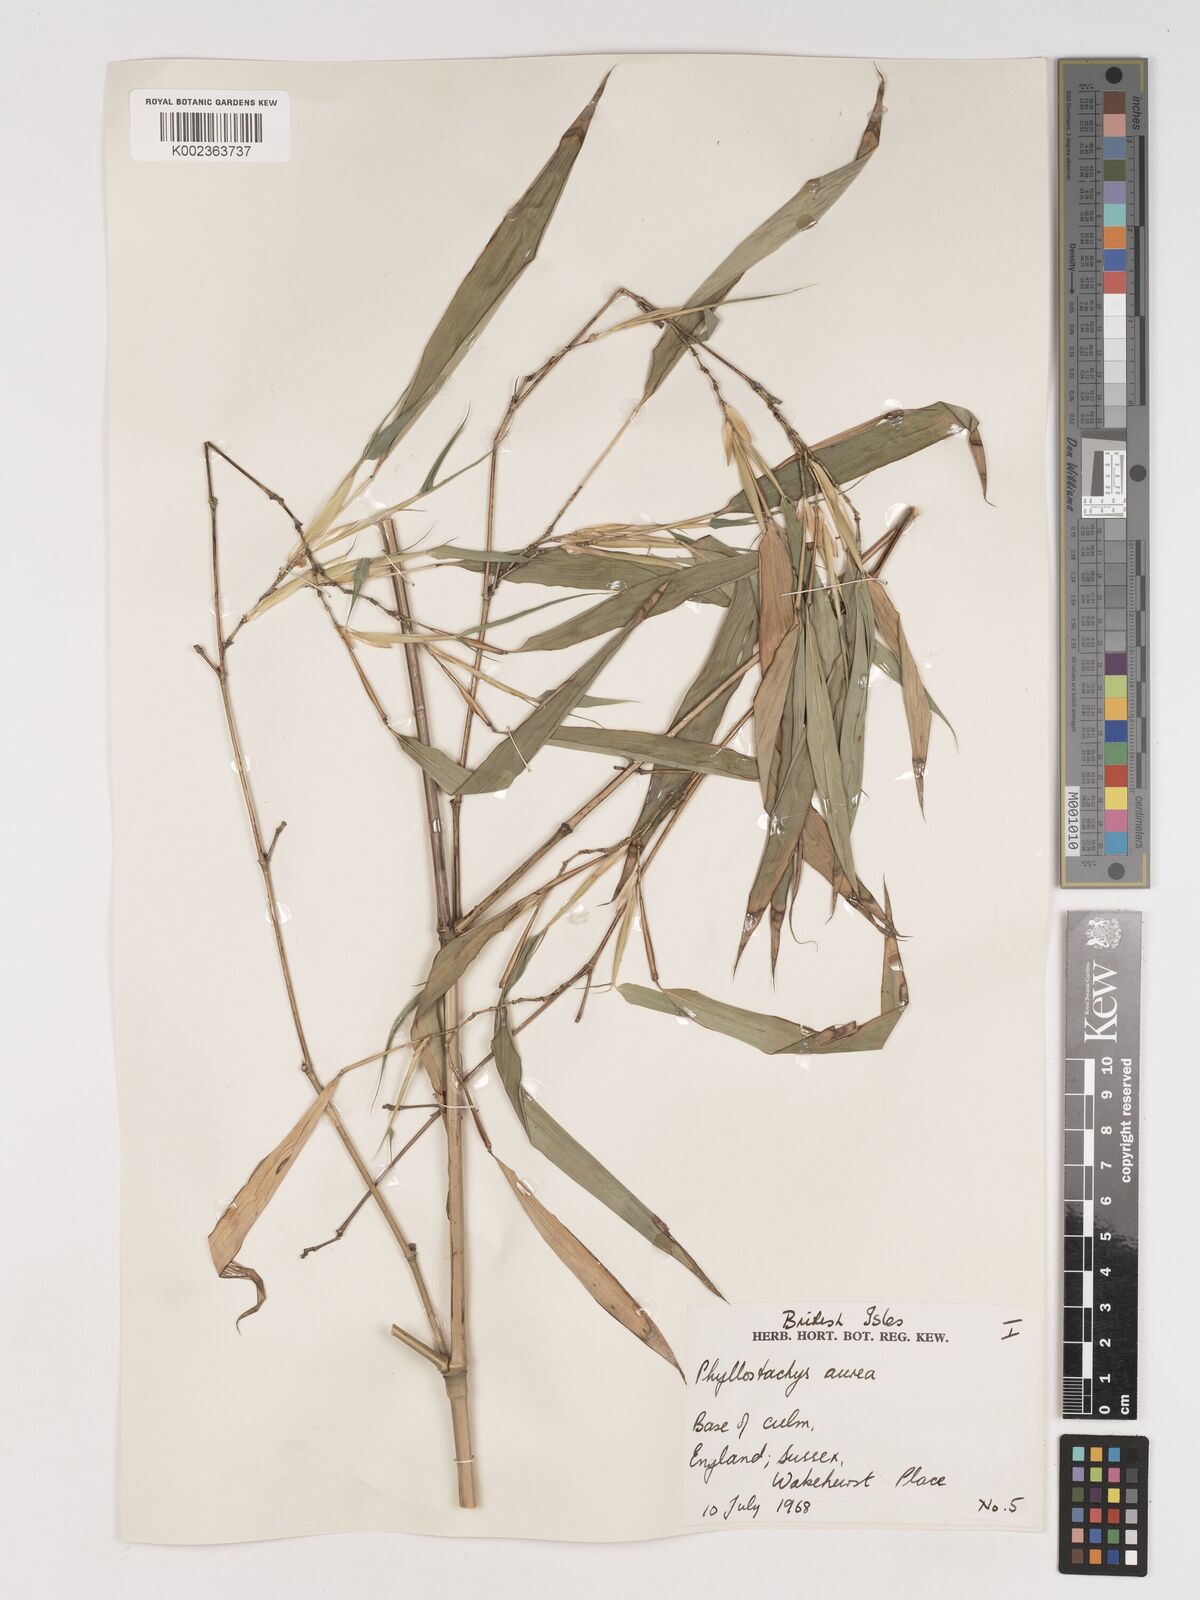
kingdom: Plantae
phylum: Tracheophyta
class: Liliopsida
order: Poales
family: Poaceae
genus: Phyllostachys
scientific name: Phyllostachys aurea
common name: Golden bamboo
